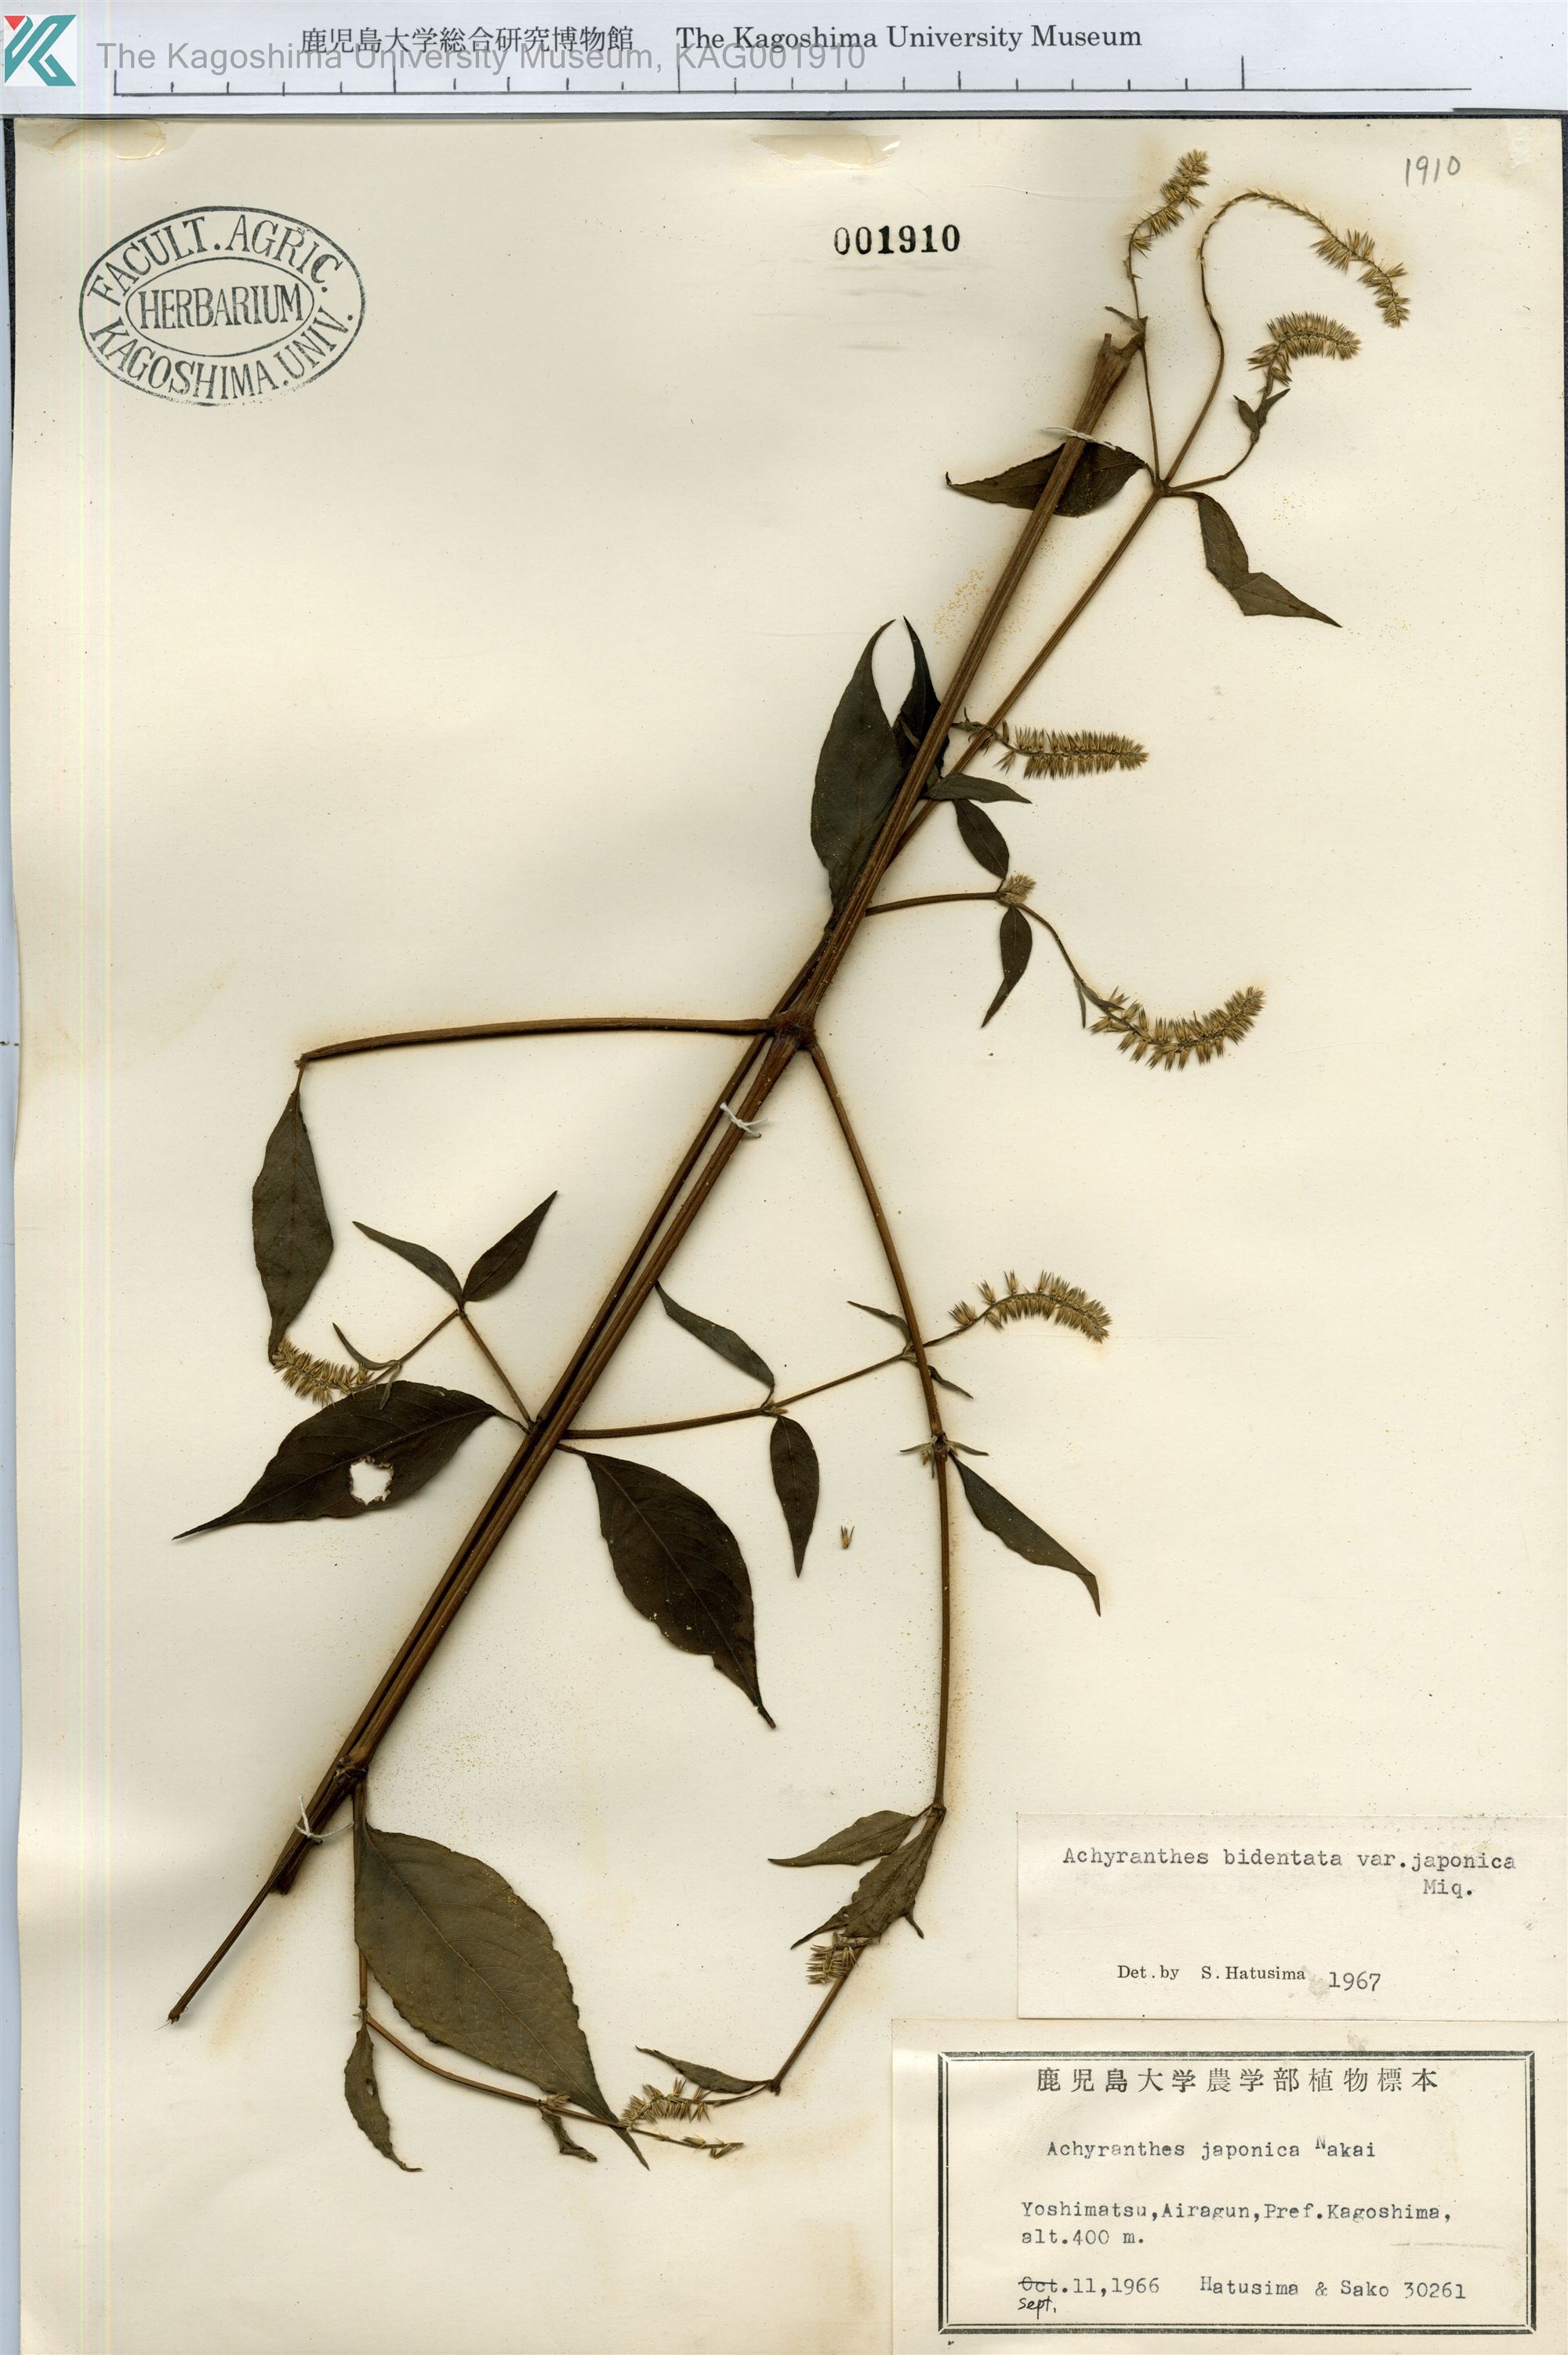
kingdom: Plantae
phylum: Tracheophyta
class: Magnoliopsida
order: Caryophyllales
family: Amaranthaceae
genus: Achyranthes
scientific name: Achyranthes bidentata
